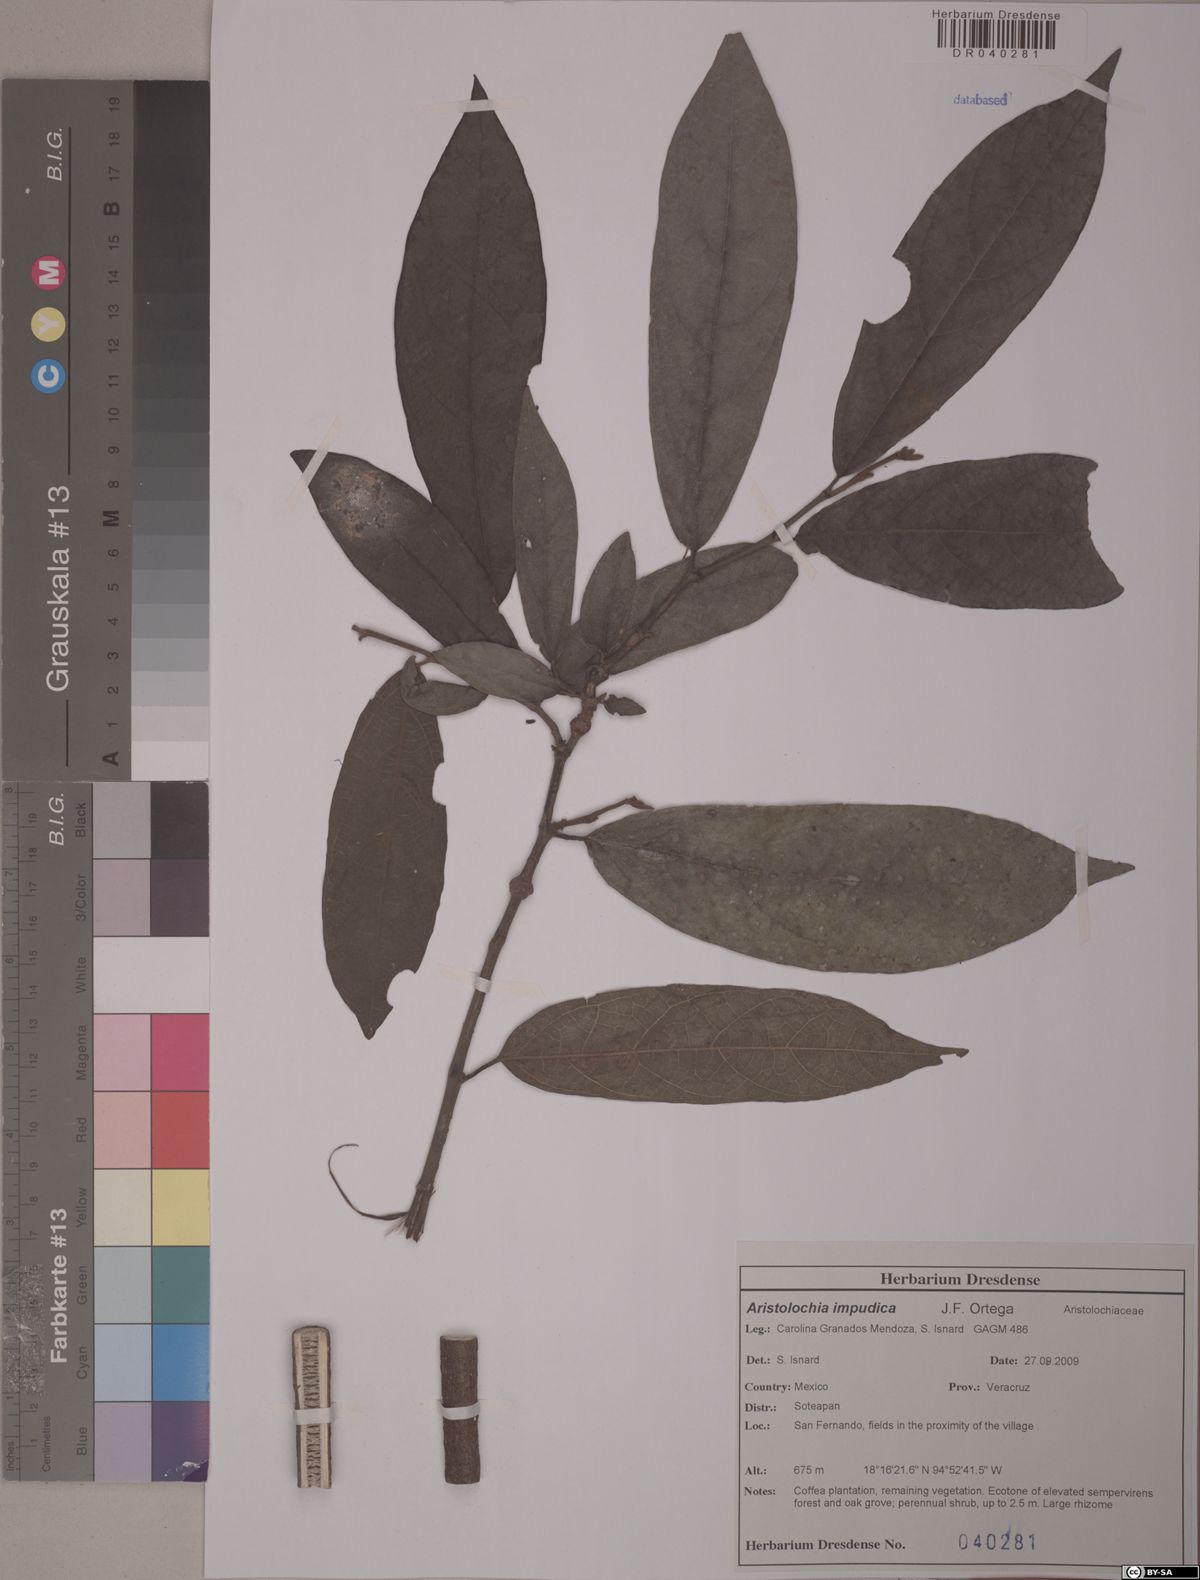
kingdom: Plantae
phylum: Tracheophyta
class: Magnoliopsida
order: Piperales
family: Aristolochiaceae
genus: Isotrema
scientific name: Isotrema impudicum
